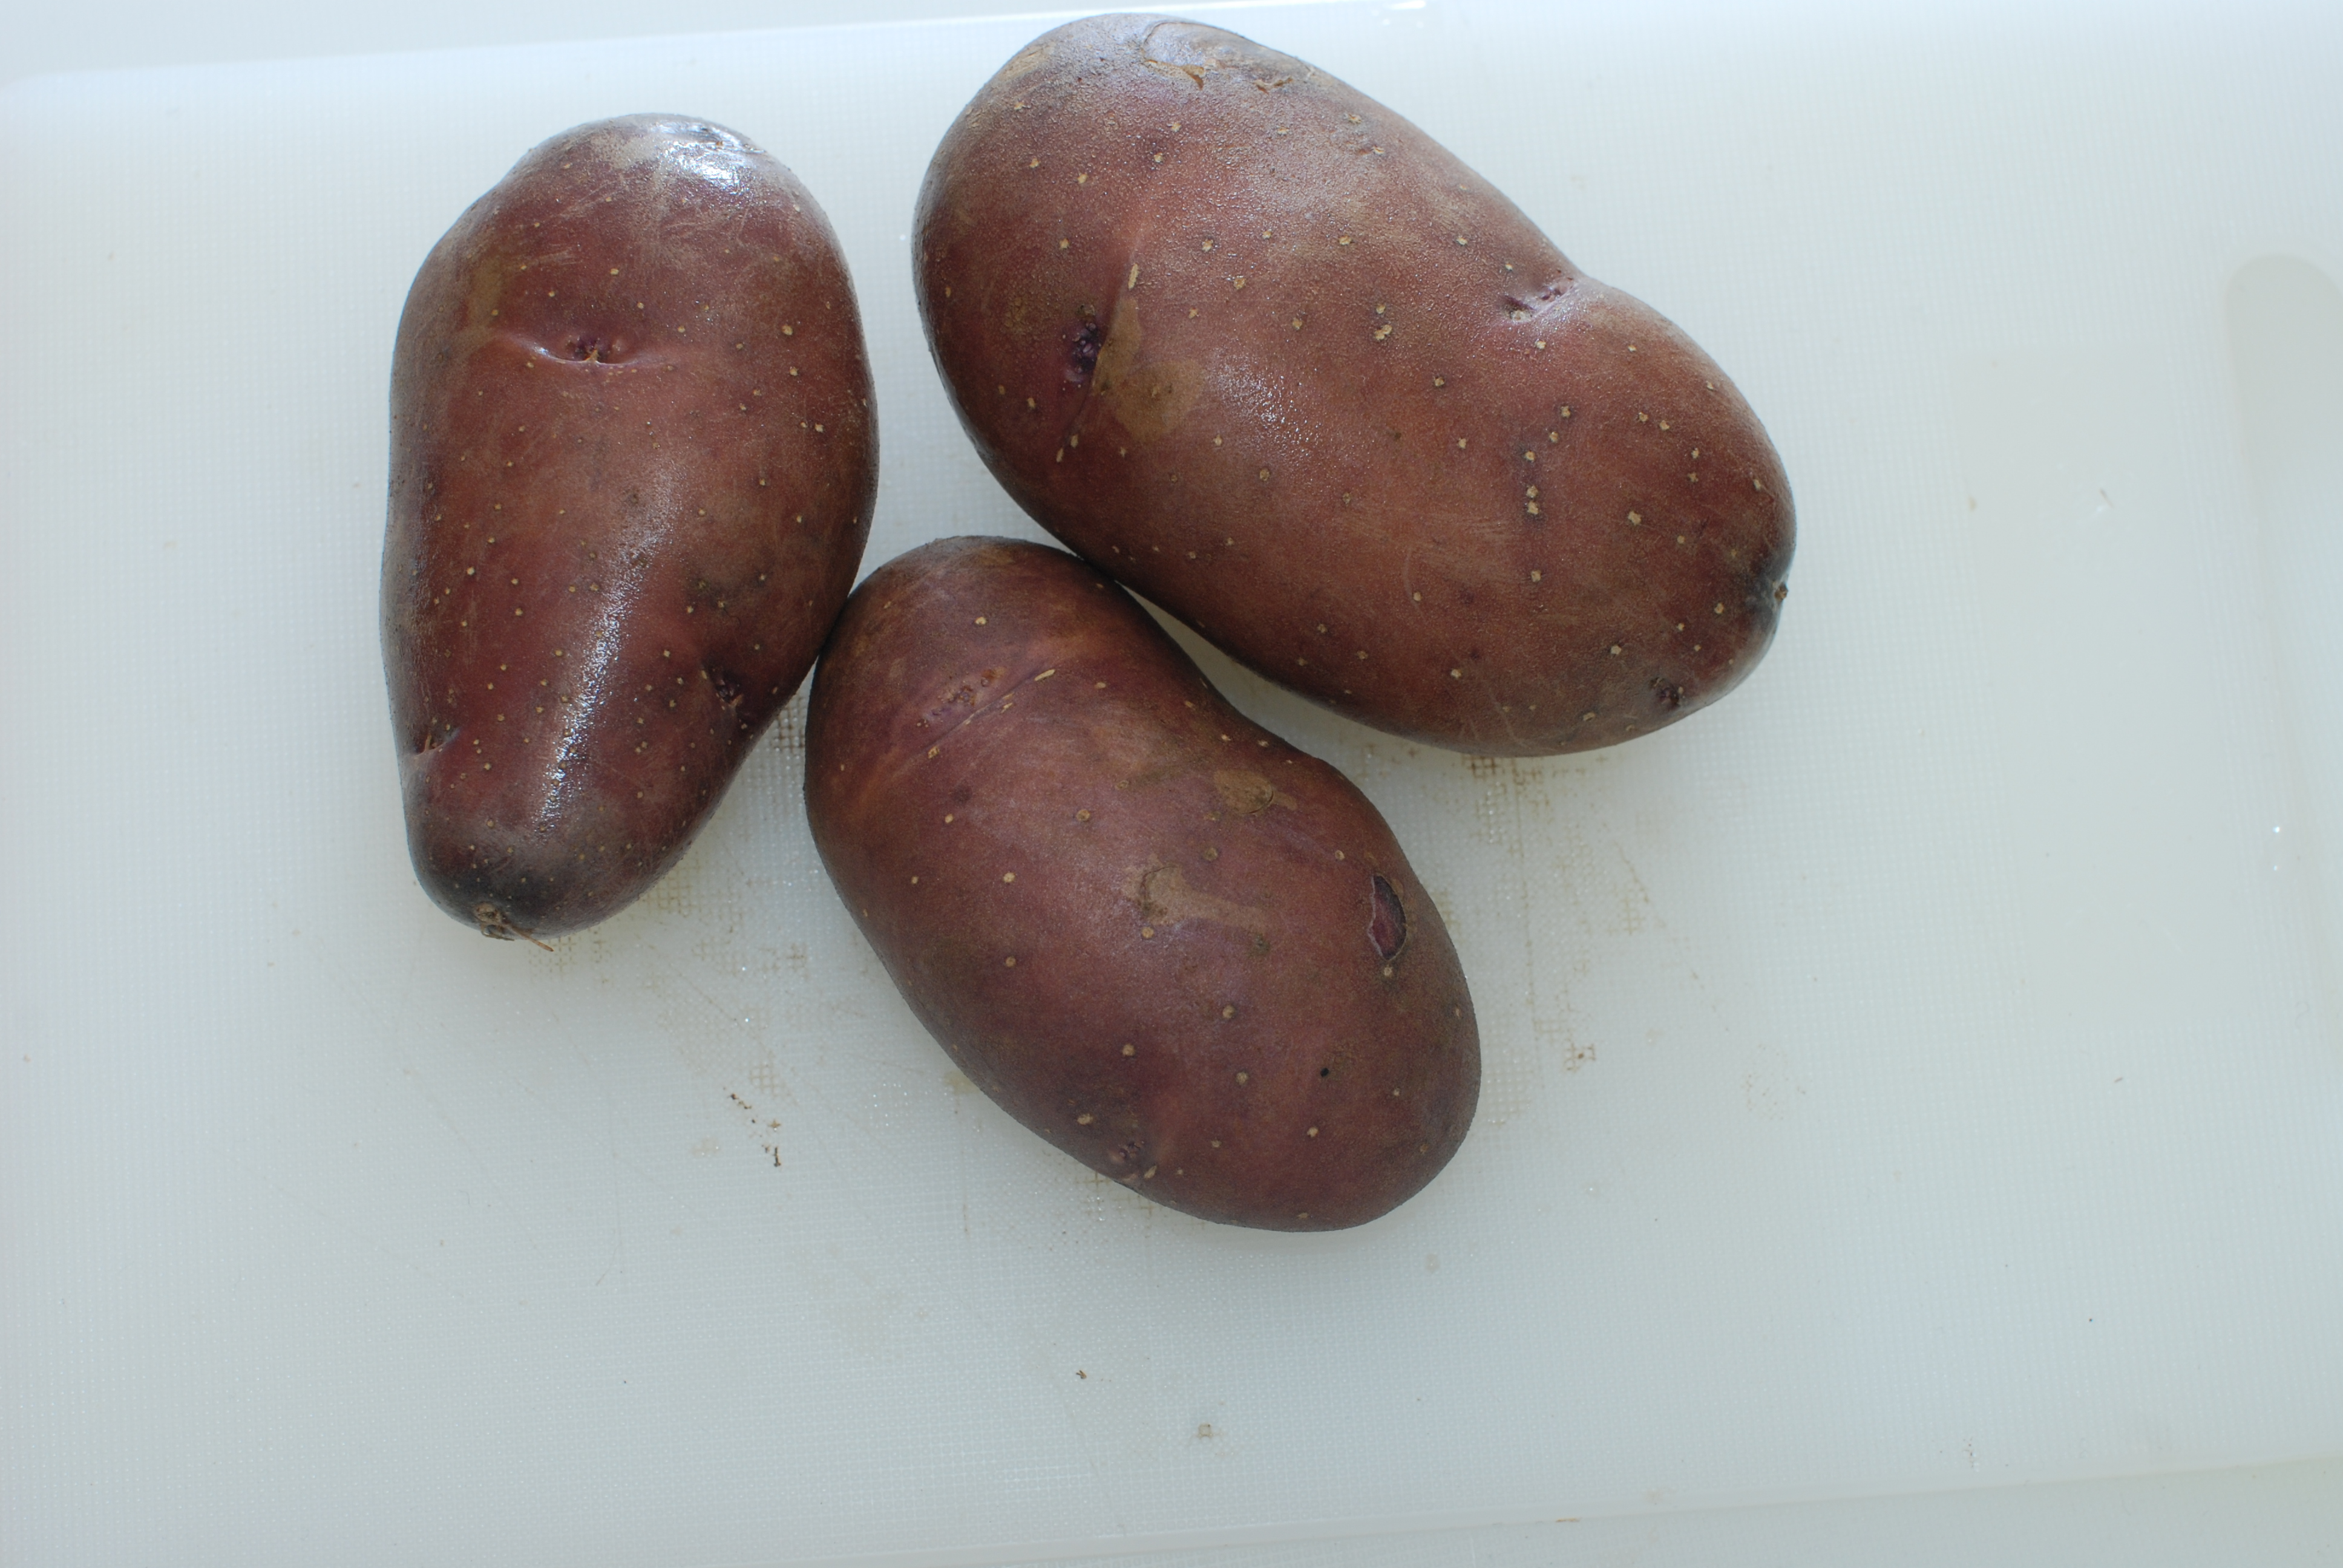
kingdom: Plantae
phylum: Tracheophyta
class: Magnoliopsida
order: Solanales
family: Solanaceae
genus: Solanum
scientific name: Solanum tuberosum
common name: Potato
